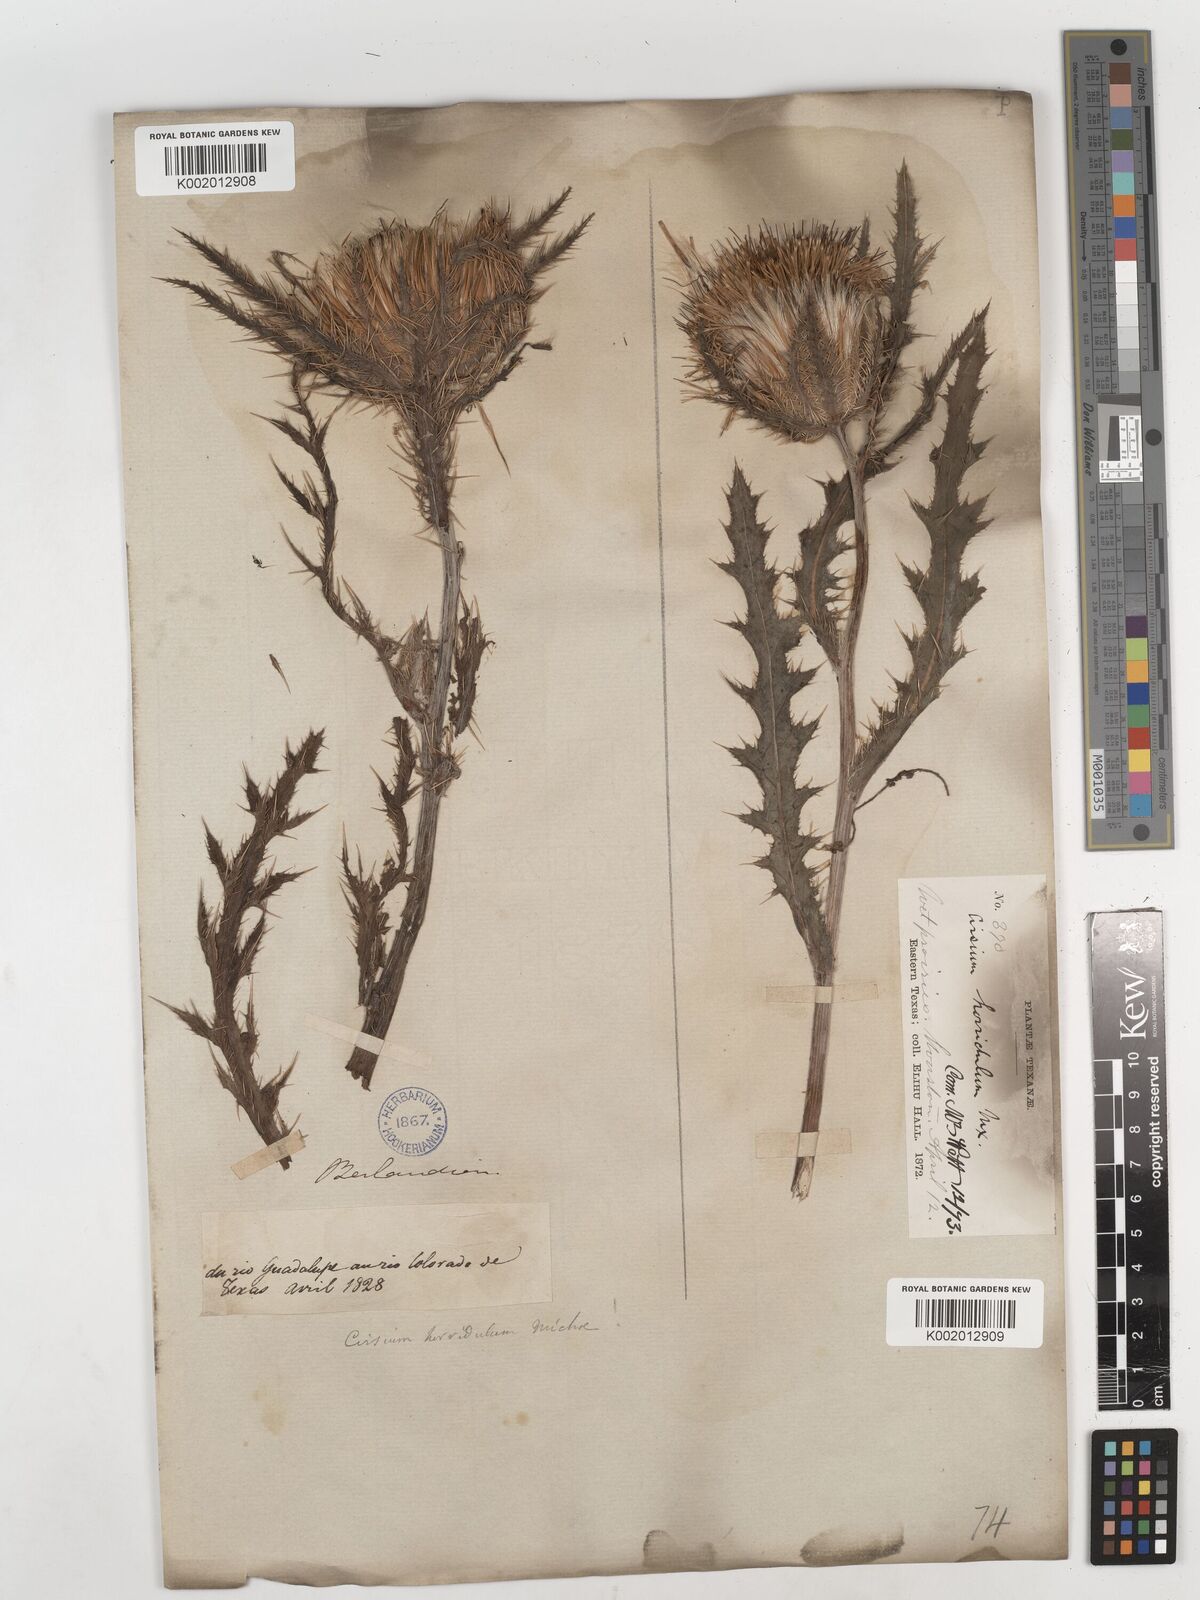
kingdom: Plantae
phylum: Tracheophyta
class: Magnoliopsida
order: Asterales
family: Asteraceae
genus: Cirsium
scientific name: Cirsium horridulum
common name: Bristly thistle
